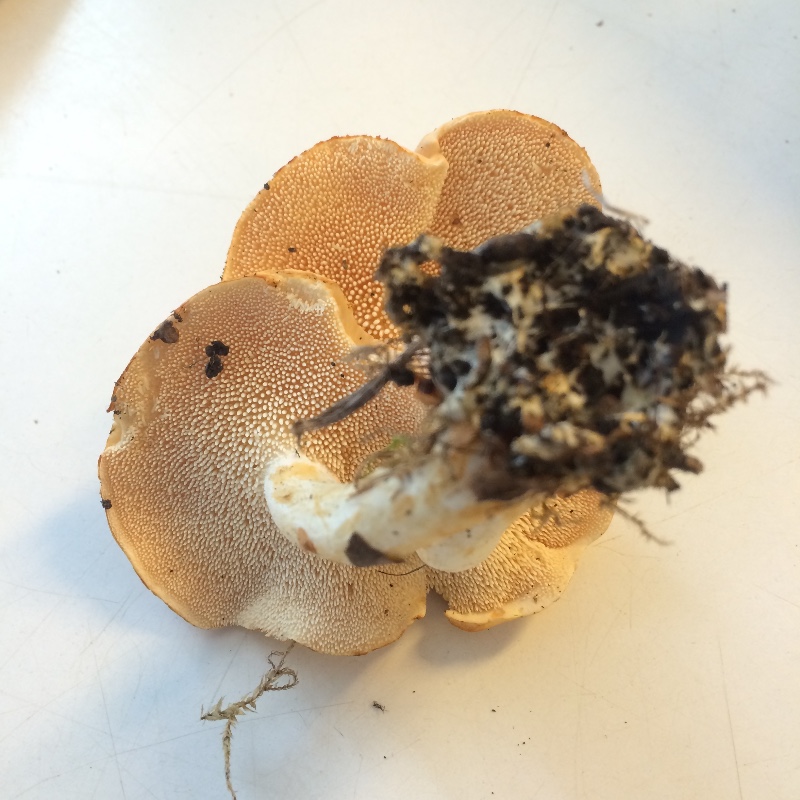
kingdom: Fungi
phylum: Basidiomycota
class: Agaricomycetes
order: Cantharellales
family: Hydnaceae
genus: Hydnum
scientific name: Hydnum magnorufescens
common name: brunende pigsvamp
